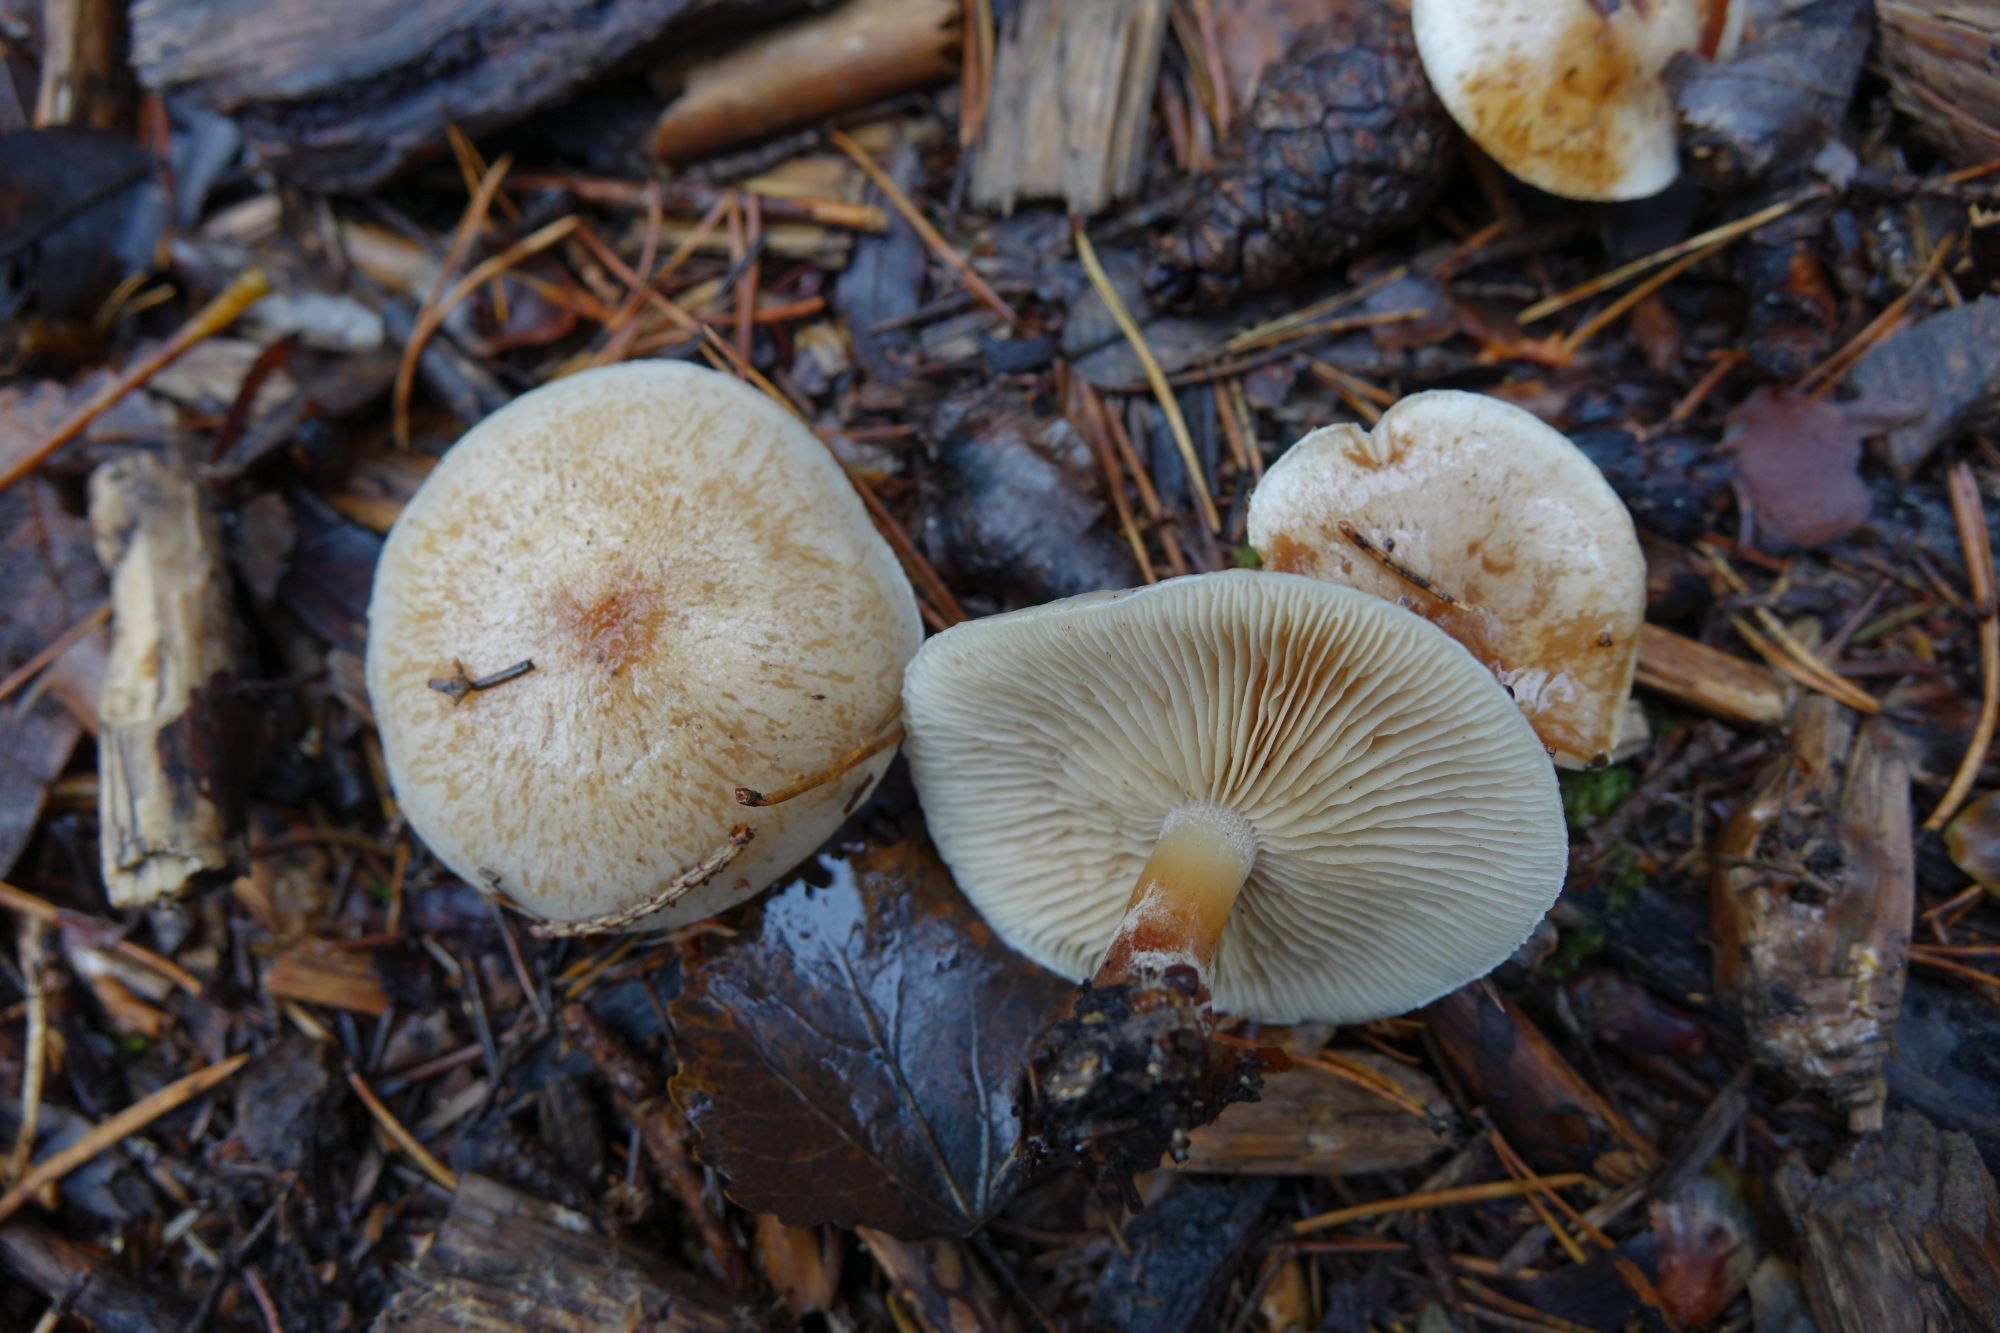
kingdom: Fungi
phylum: Basidiomycota
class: Agaricomycetes
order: Agaricales
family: Strophariaceae
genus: Pholiota
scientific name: Pholiota lenta
